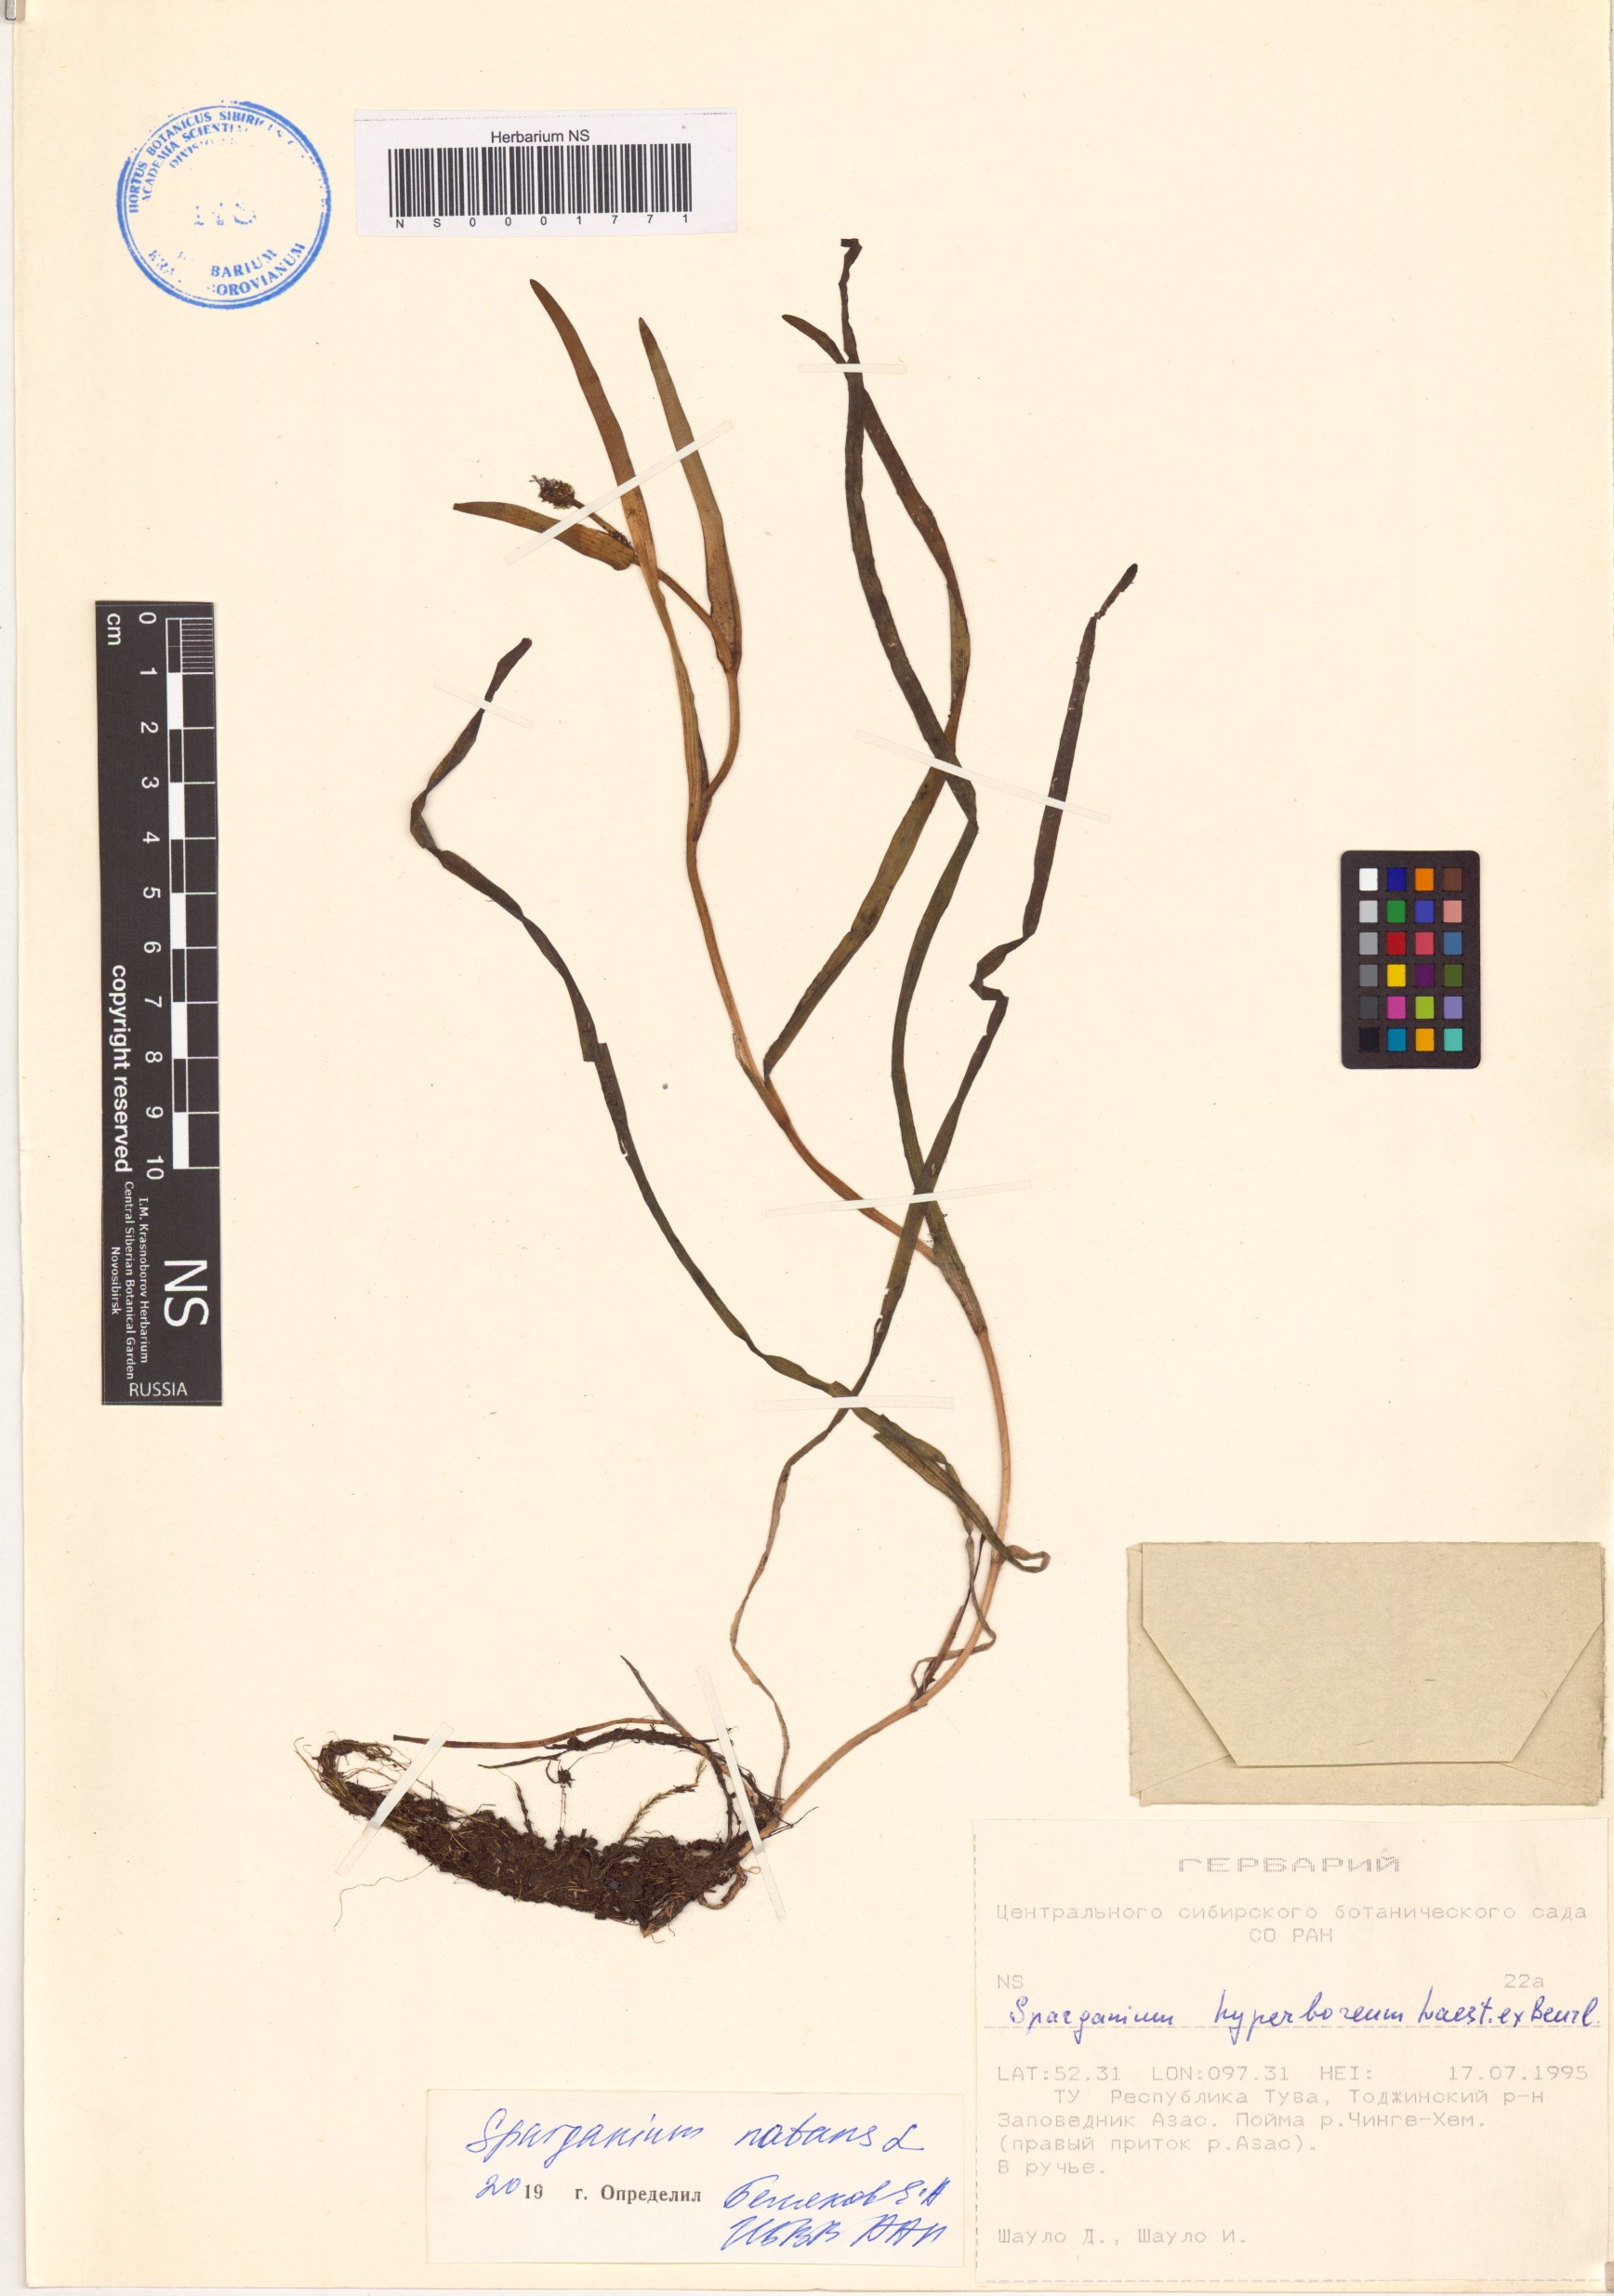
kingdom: Plantae
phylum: Tracheophyta
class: Liliopsida
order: Poales
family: Typhaceae
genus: Sparganium
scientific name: Sparganium natans
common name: Least bur-reed
